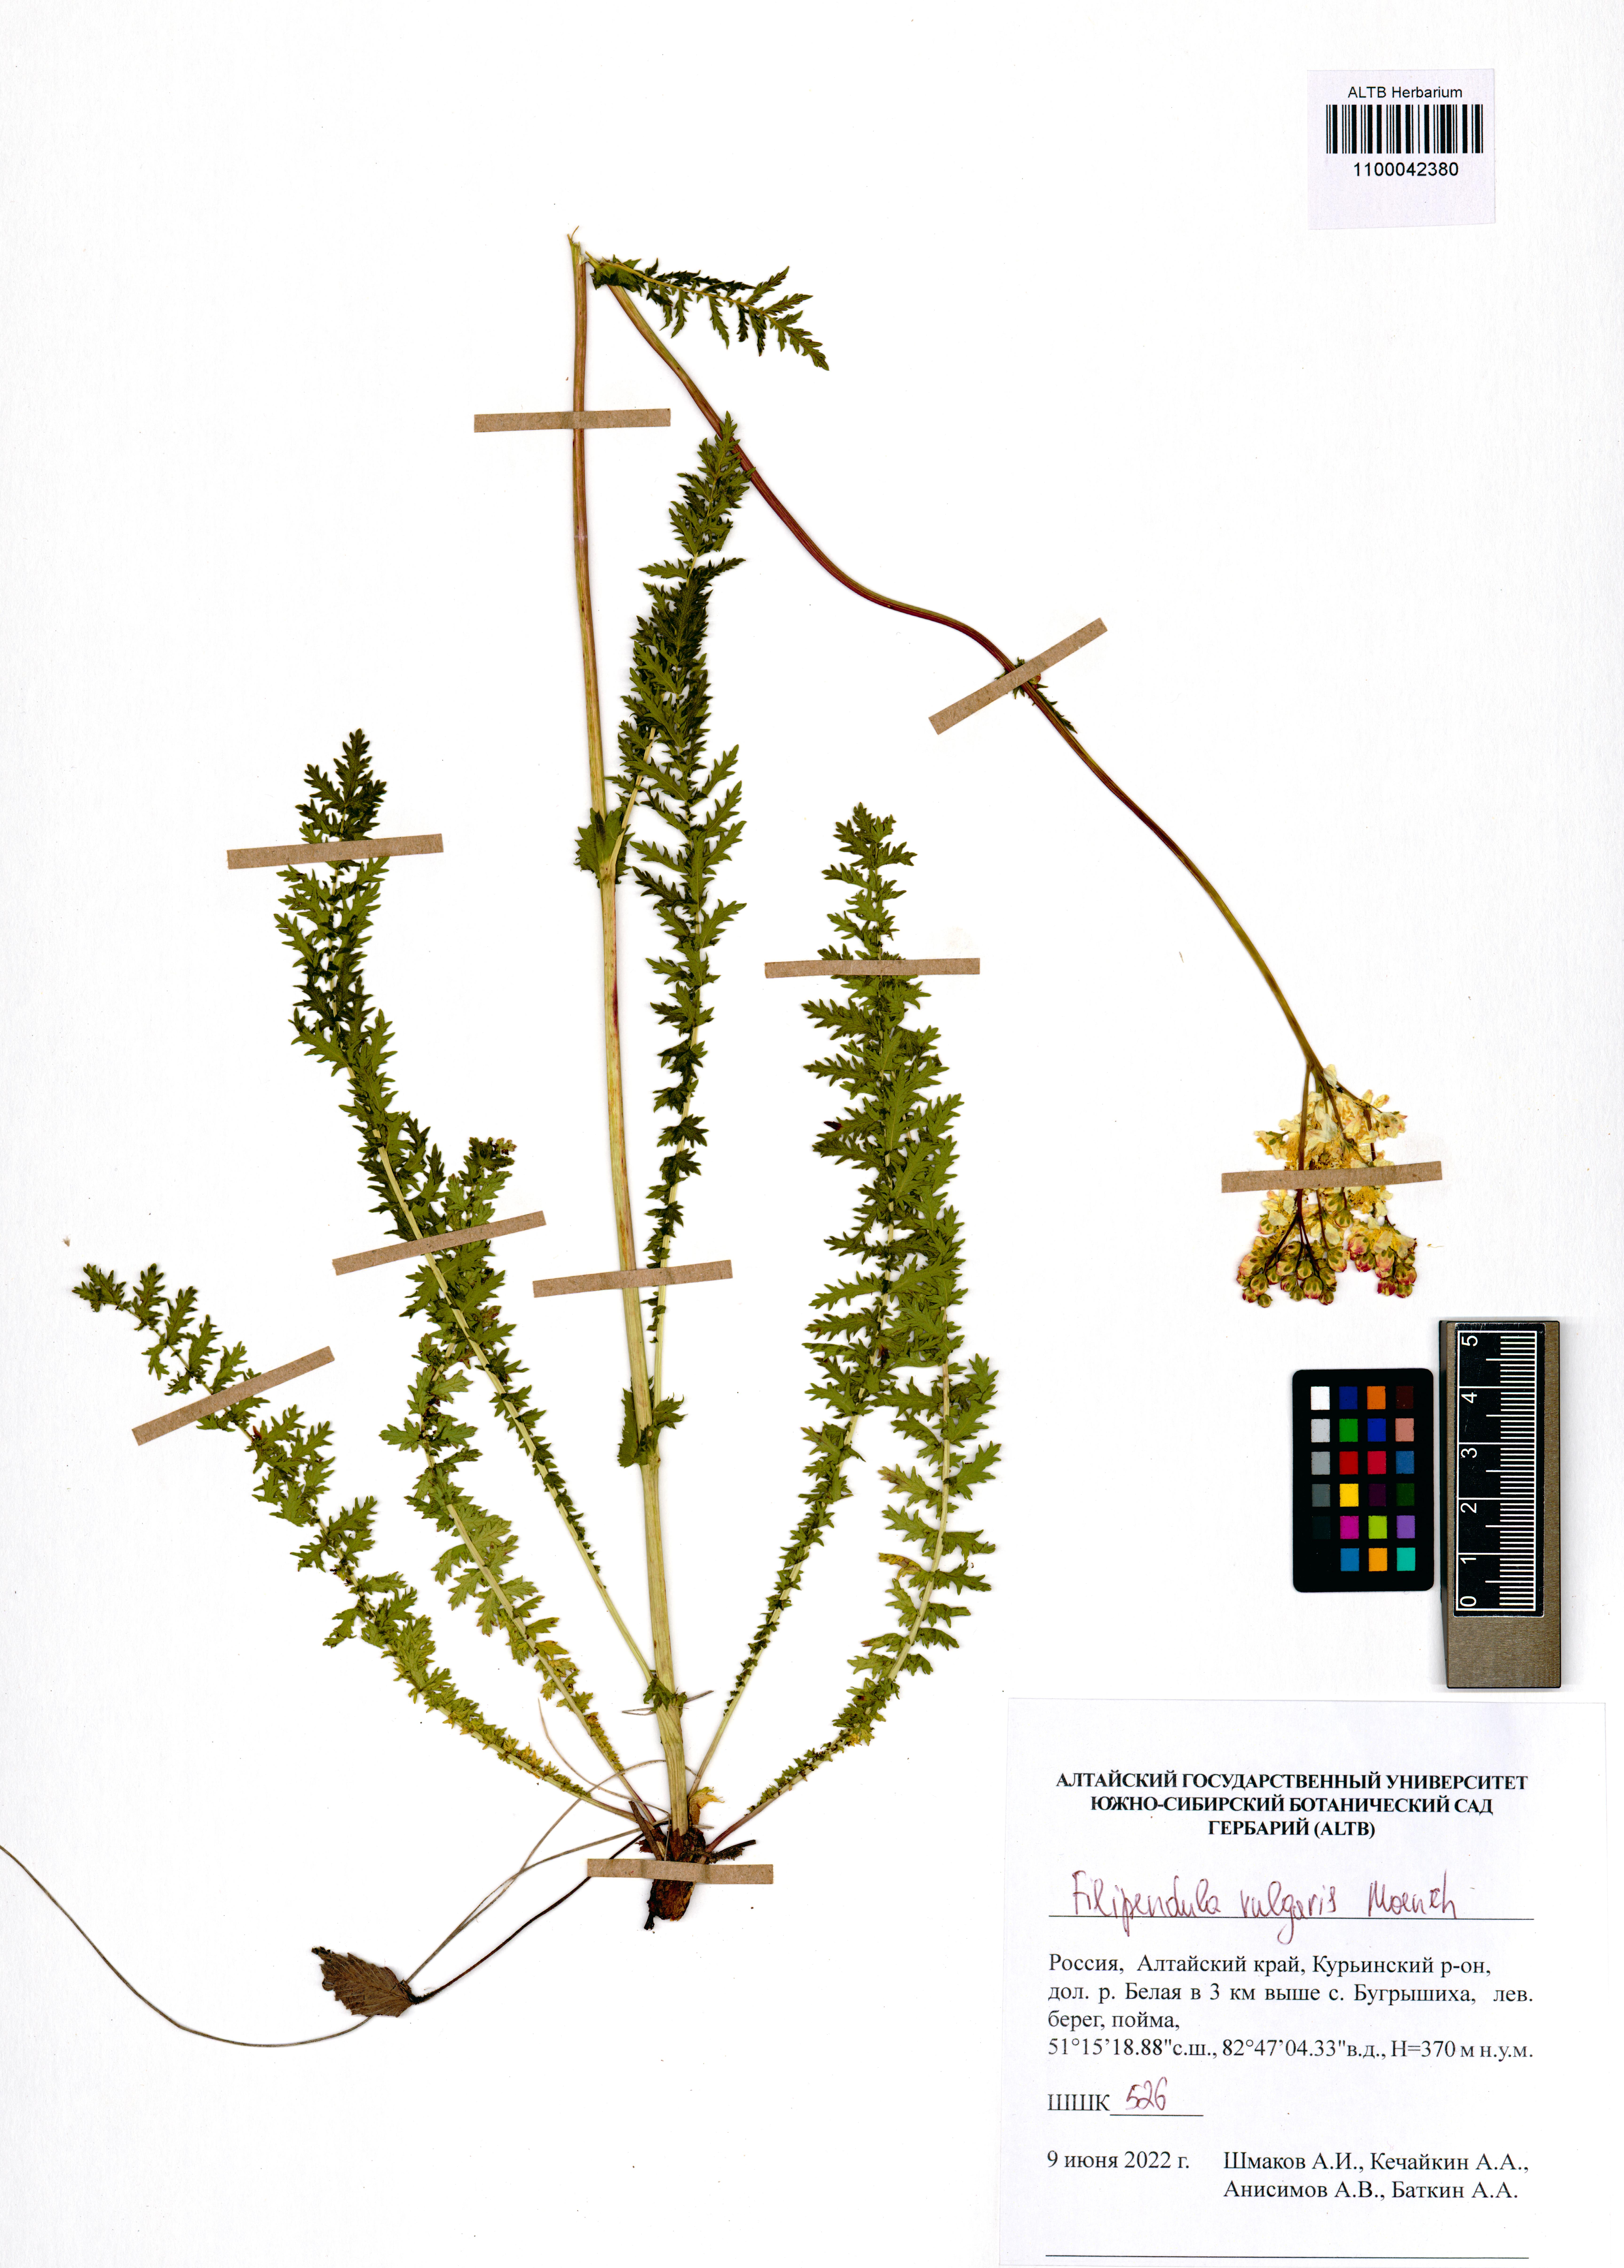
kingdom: Plantae
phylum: Tracheophyta
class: Magnoliopsida
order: Rosales
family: Rosaceae
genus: Filipendula
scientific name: Filipendula vulgaris
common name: Dropwort
